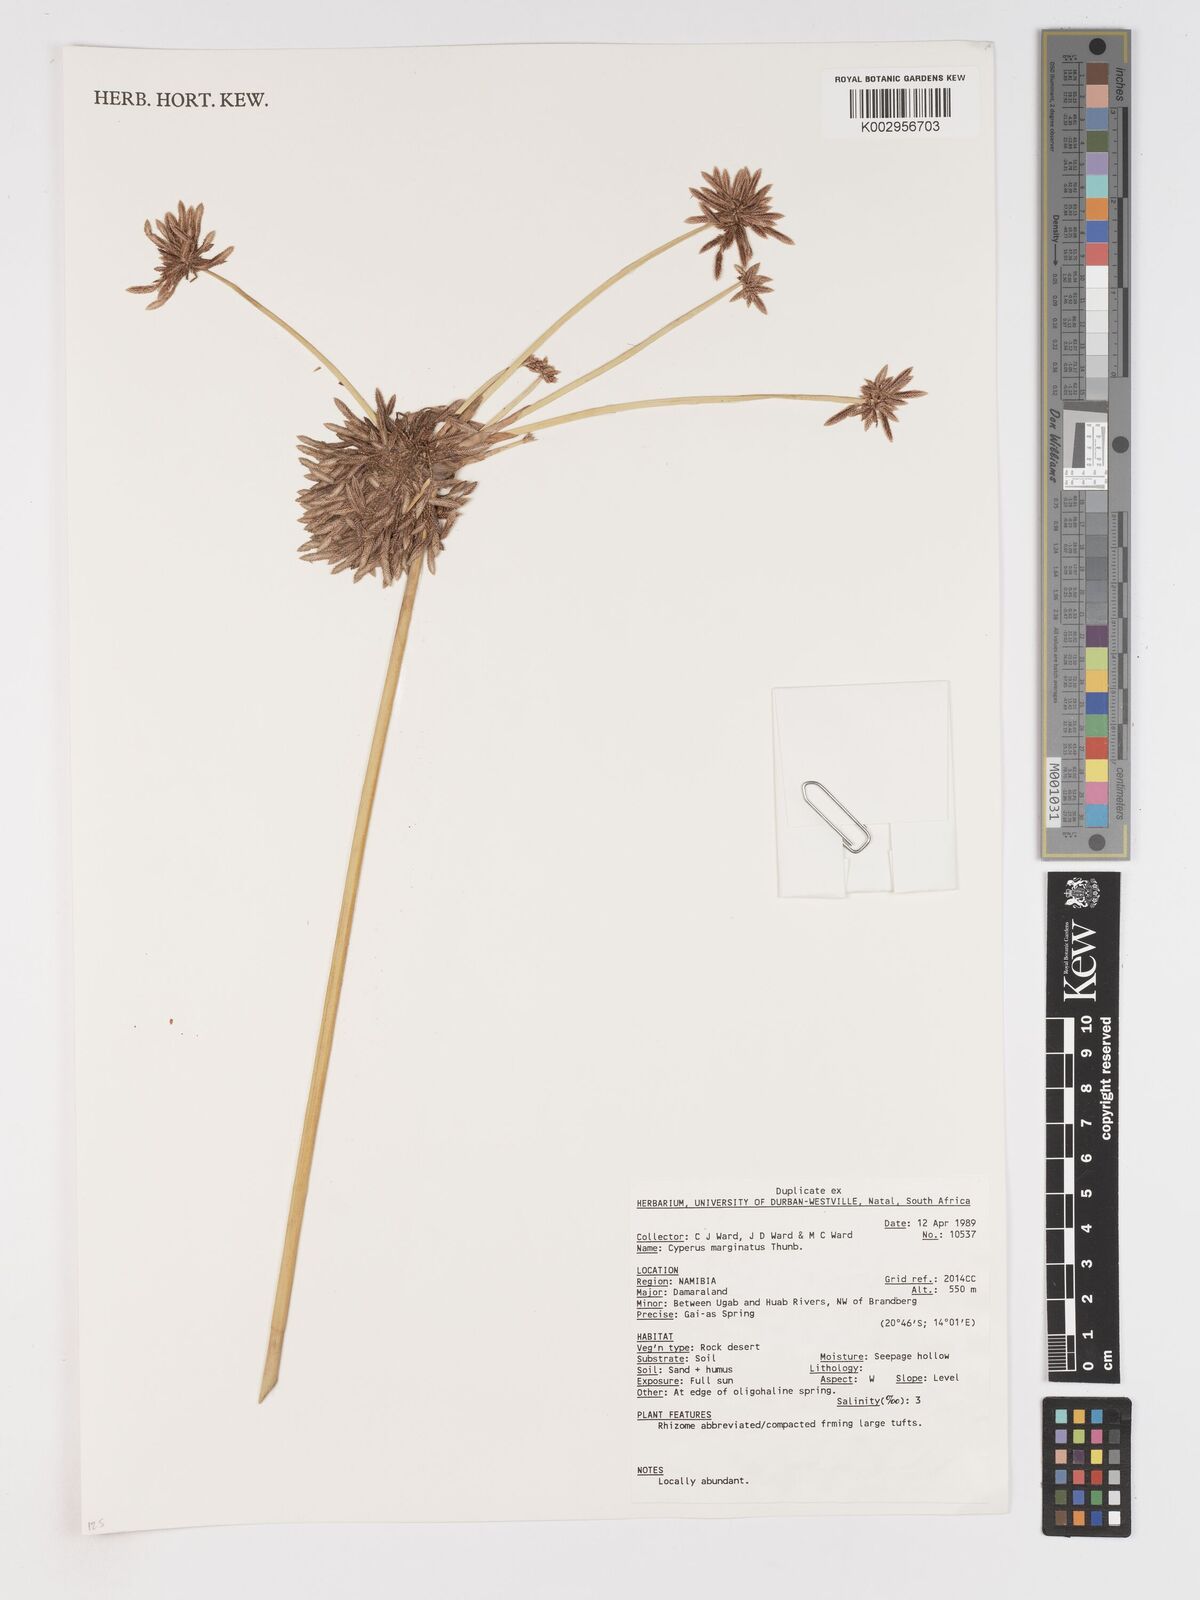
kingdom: Plantae
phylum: Tracheophyta
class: Liliopsida
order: Poales
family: Cyperaceae
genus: Cyperus
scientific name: Cyperus marginatus
